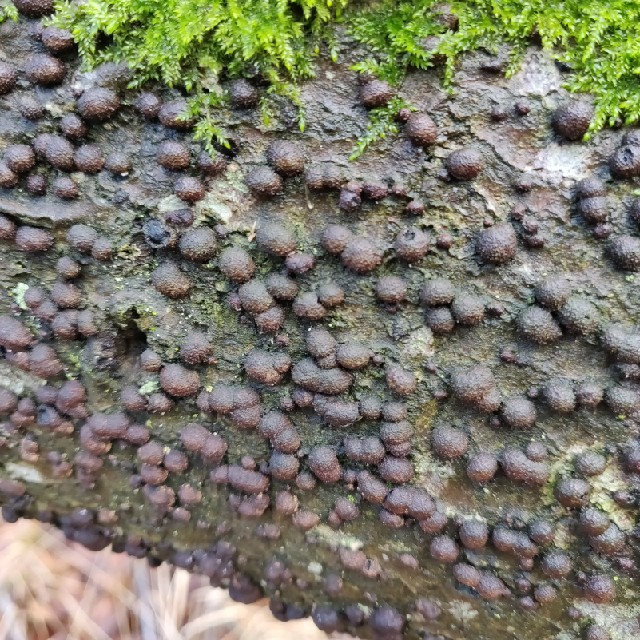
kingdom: Fungi
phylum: Ascomycota
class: Sordariomycetes
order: Xylariales
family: Hypoxylaceae
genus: Hypoxylon
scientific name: Hypoxylon fragiforme
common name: kuljordbær
